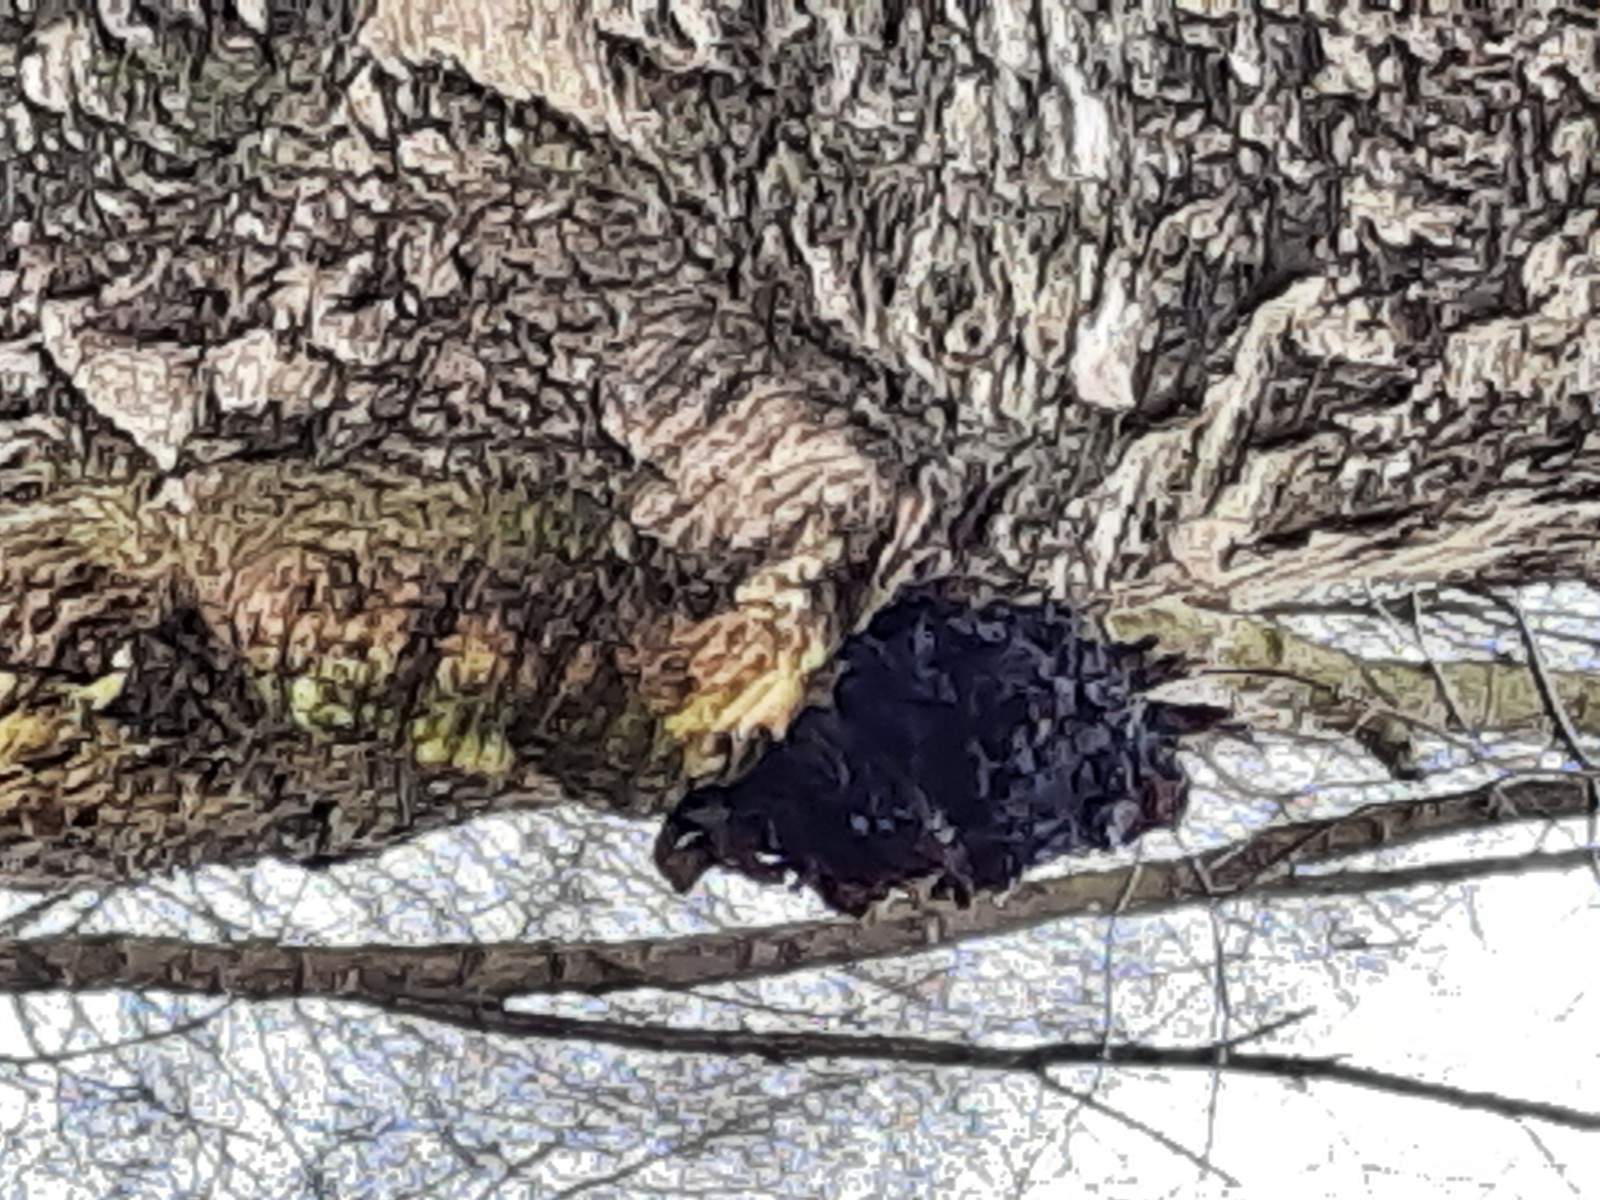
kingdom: Fungi
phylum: Basidiomycota
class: Agaricomycetes
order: Hymenochaetales
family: Hymenochaetaceae
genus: Inonotus
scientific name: Inonotus obliquus
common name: birke-spejlporesvamp
